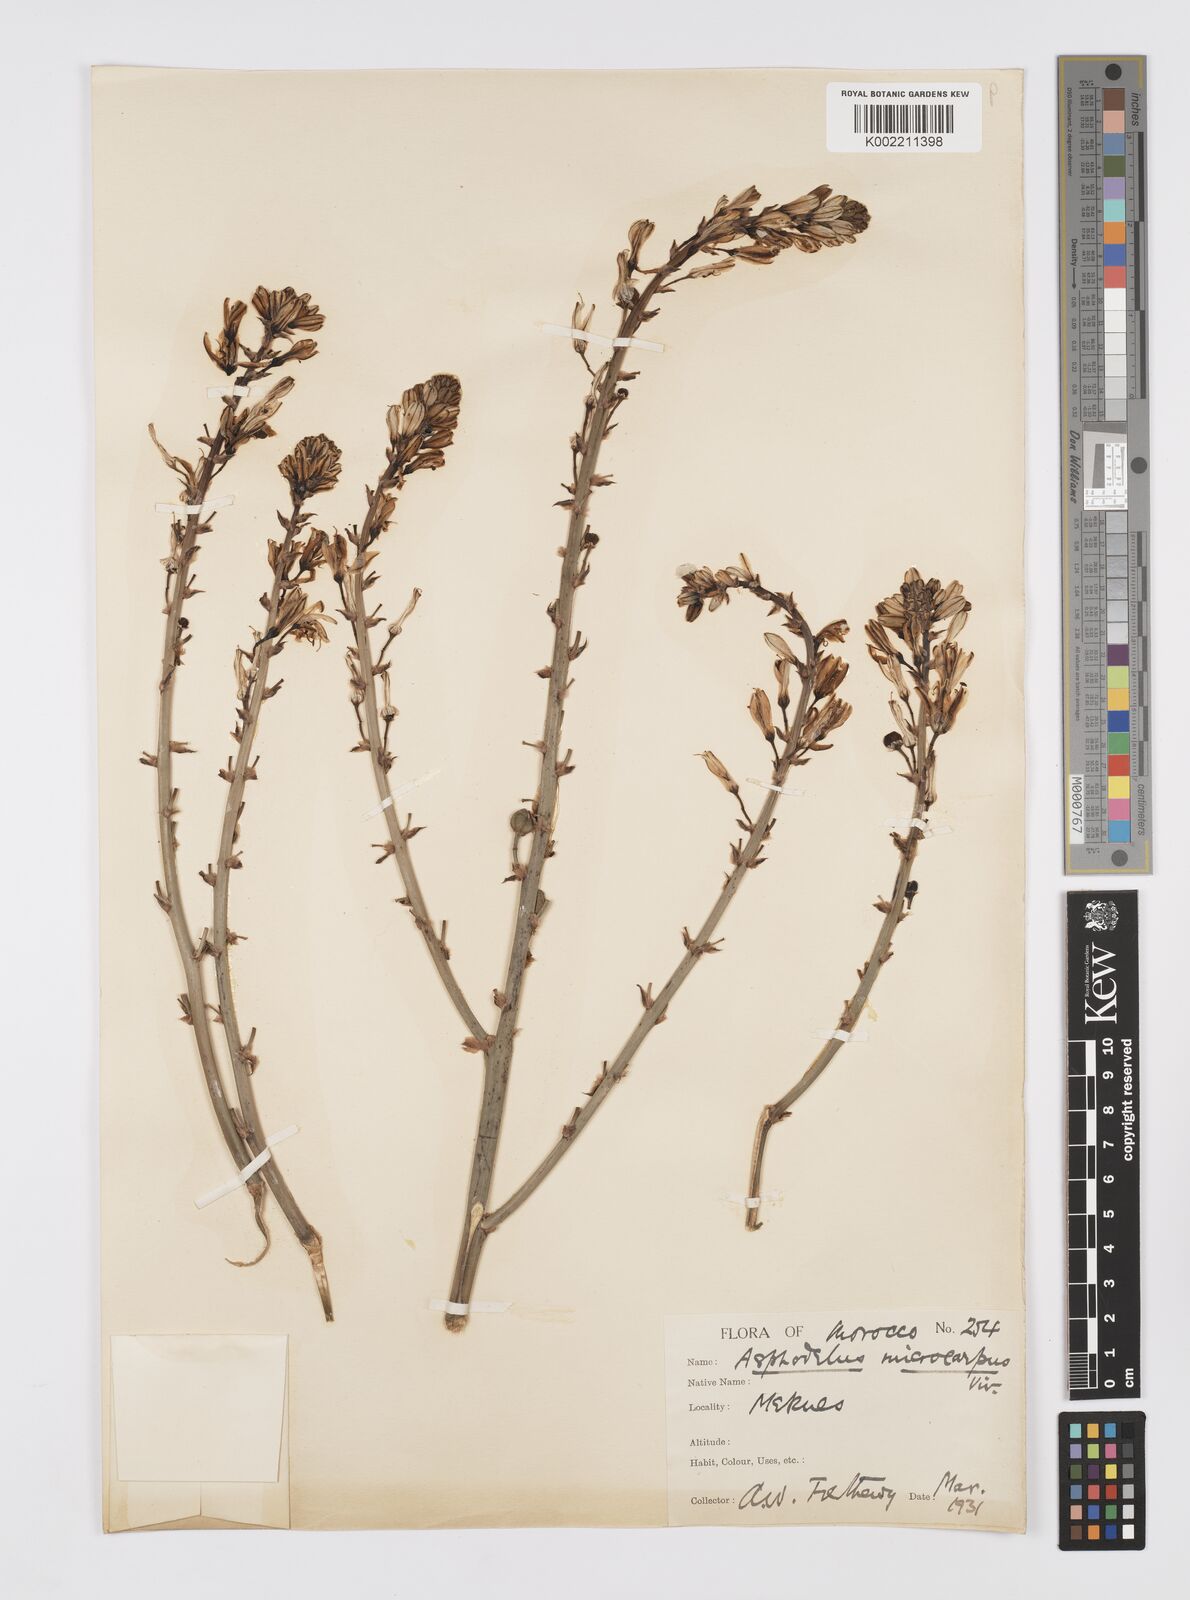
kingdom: Plantae
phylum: Tracheophyta
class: Liliopsida
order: Asparagales
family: Asphodelaceae
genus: Asphodelus
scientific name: Asphodelus ramosus
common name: Silverrod
